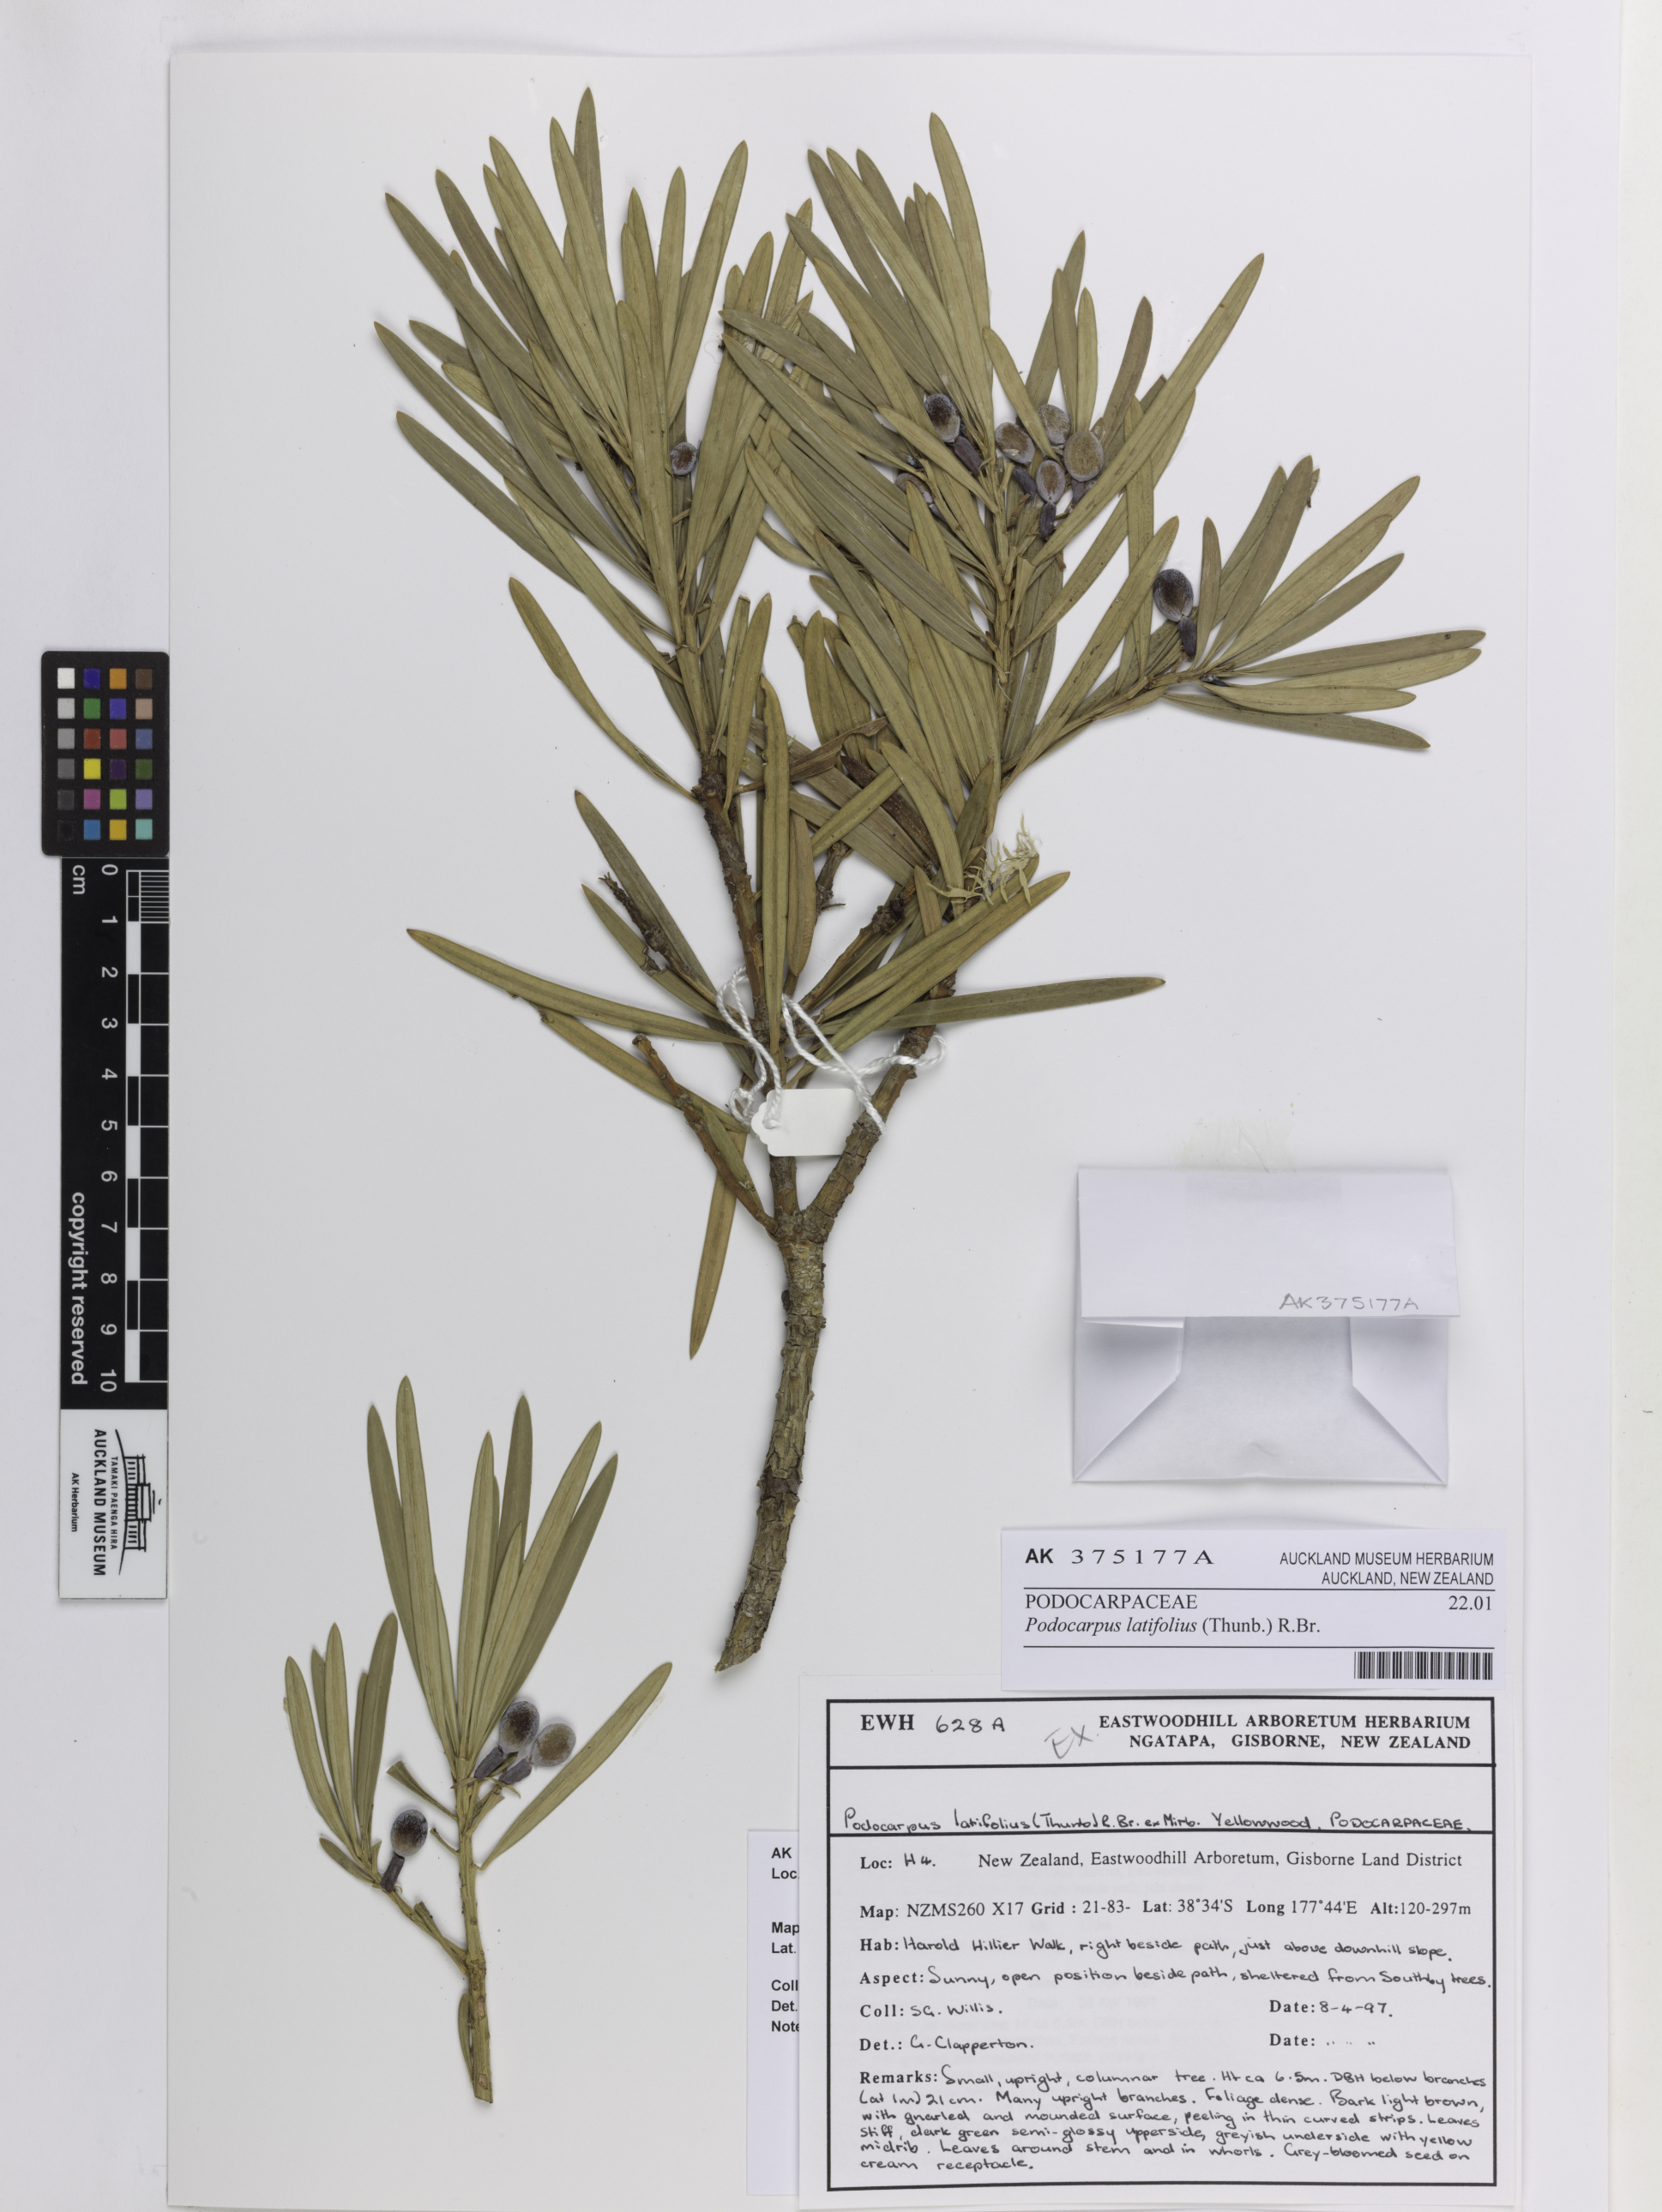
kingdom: Plantae
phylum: Tracheophyta
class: Pinopsida
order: Pinales
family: Podocarpaceae
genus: Podocarpus
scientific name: Podocarpus latifolius
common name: True yellowwood
